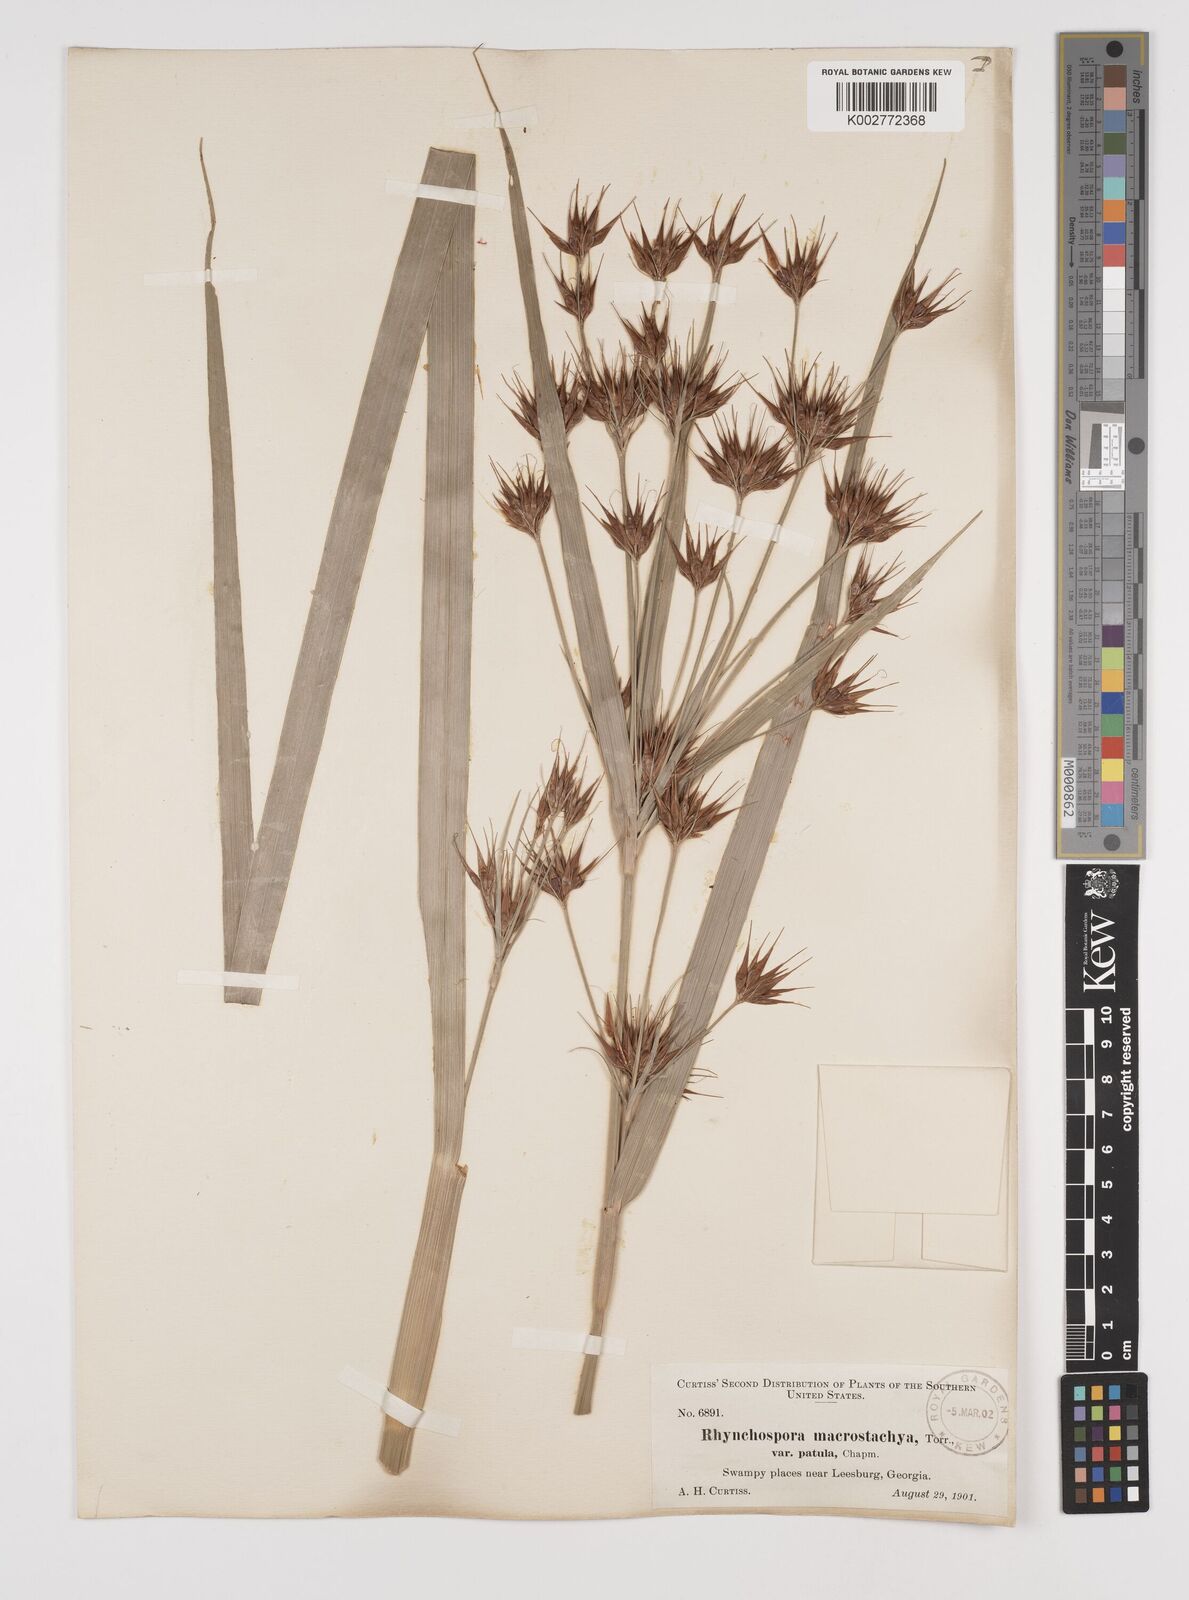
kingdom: Plantae
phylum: Tracheophyta
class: Liliopsida
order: Poales
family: Cyperaceae
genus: Rhynchospora
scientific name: Rhynchospora corniculata
